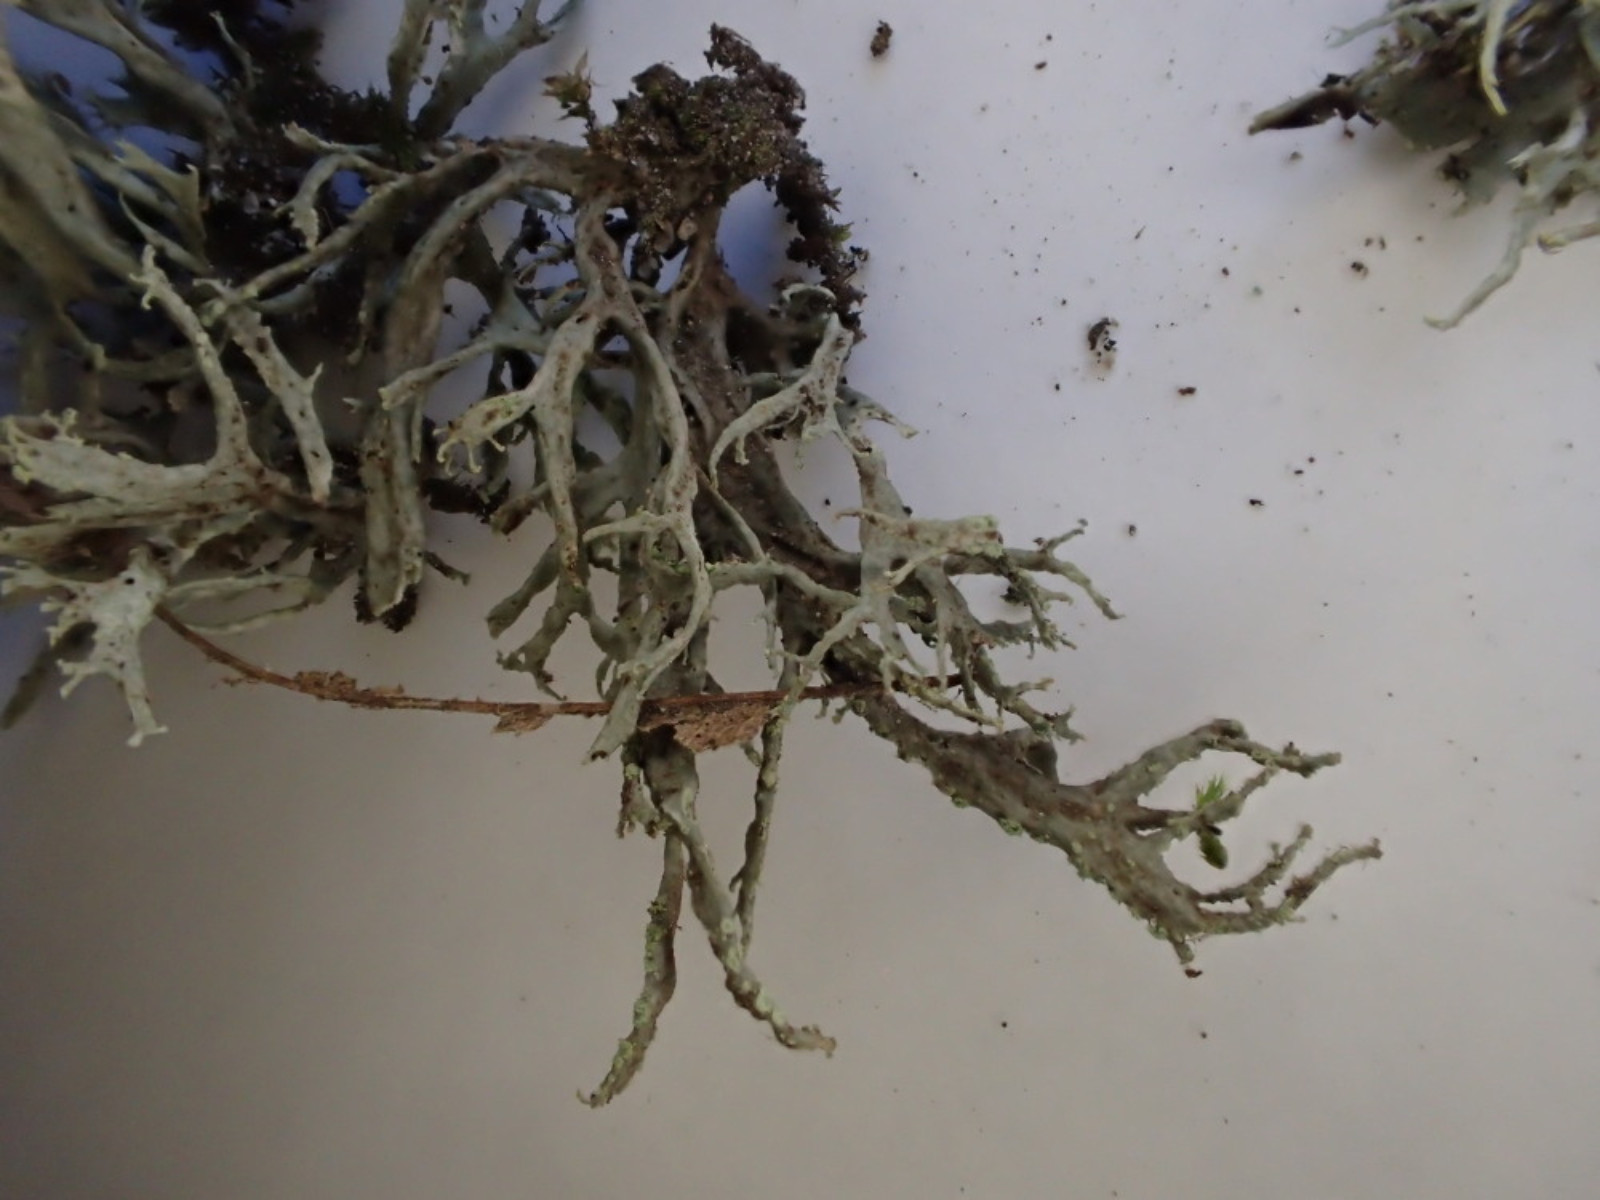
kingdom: Fungi
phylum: Ascomycota
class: Lecanoromycetes
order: Lecanorales
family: Ramalinaceae
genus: Ramalina
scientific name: Ramalina farinacea
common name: melet grenlav
